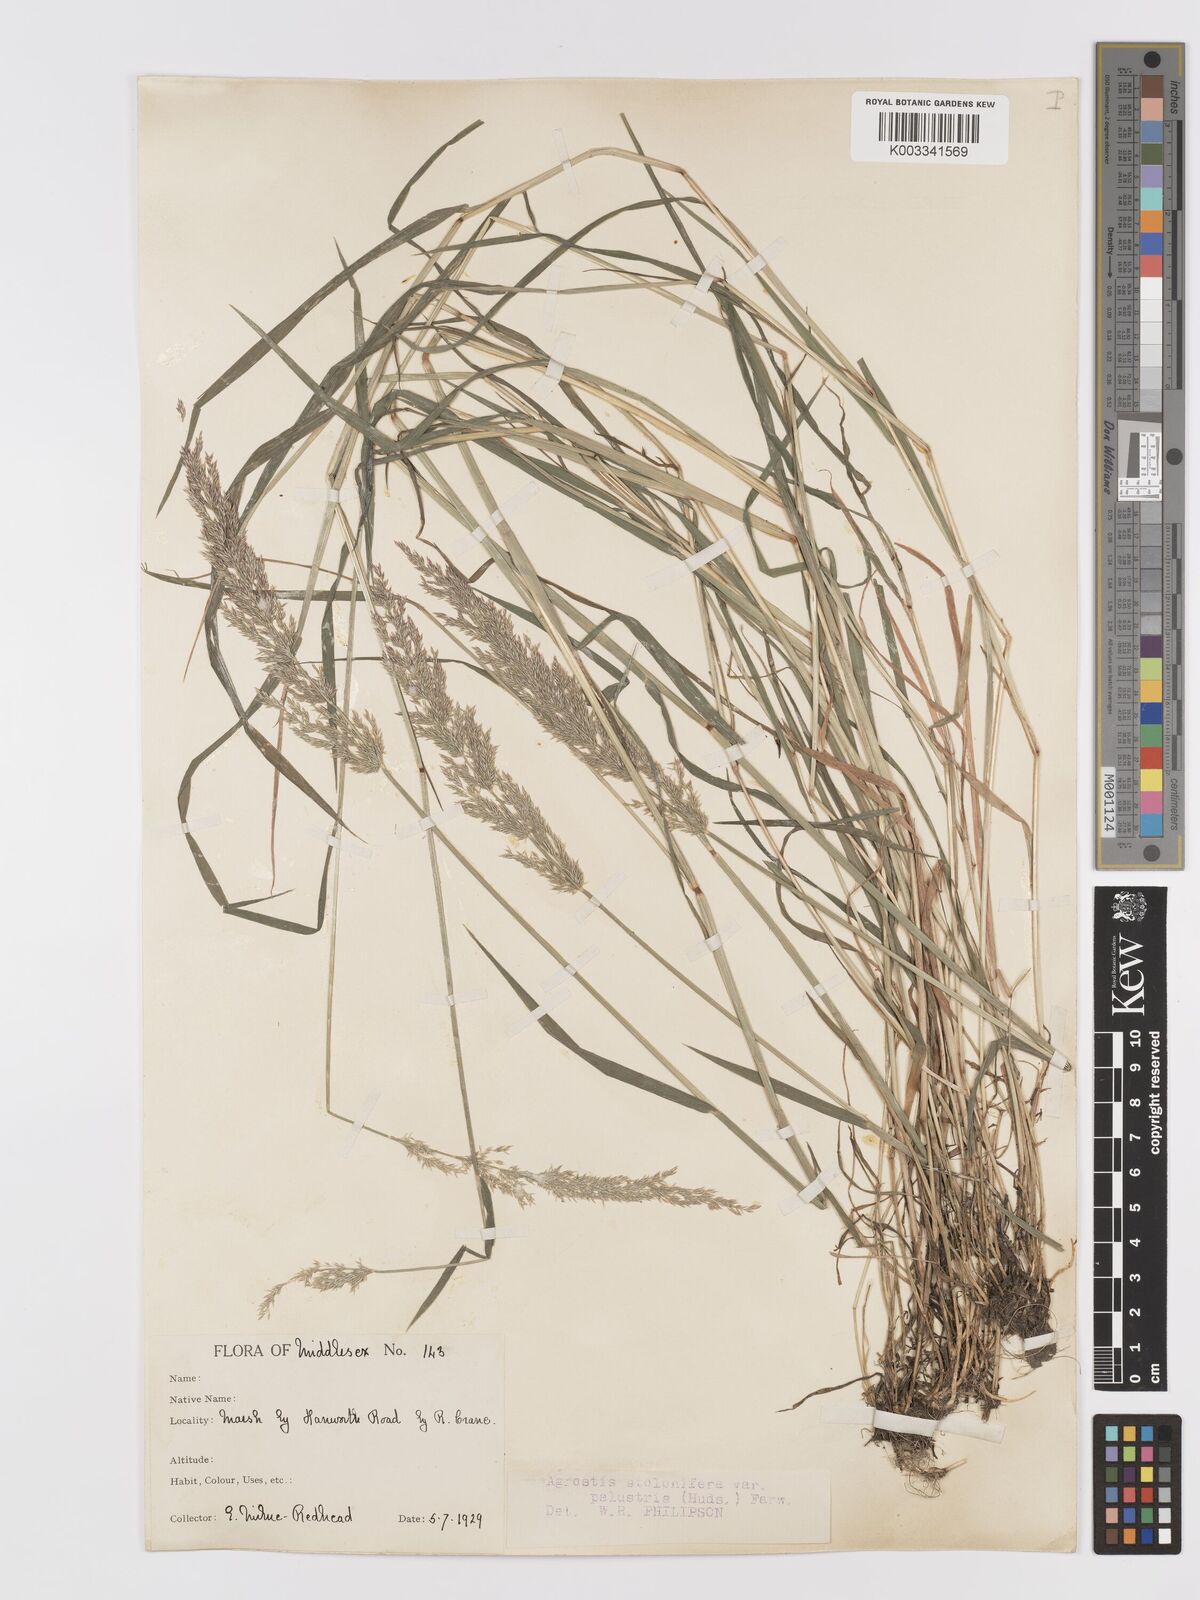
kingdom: Plantae
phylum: Tracheophyta
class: Liliopsida
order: Poales
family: Poaceae
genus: Agrostis
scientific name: Agrostis stolonifera
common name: Creeping bentgrass
